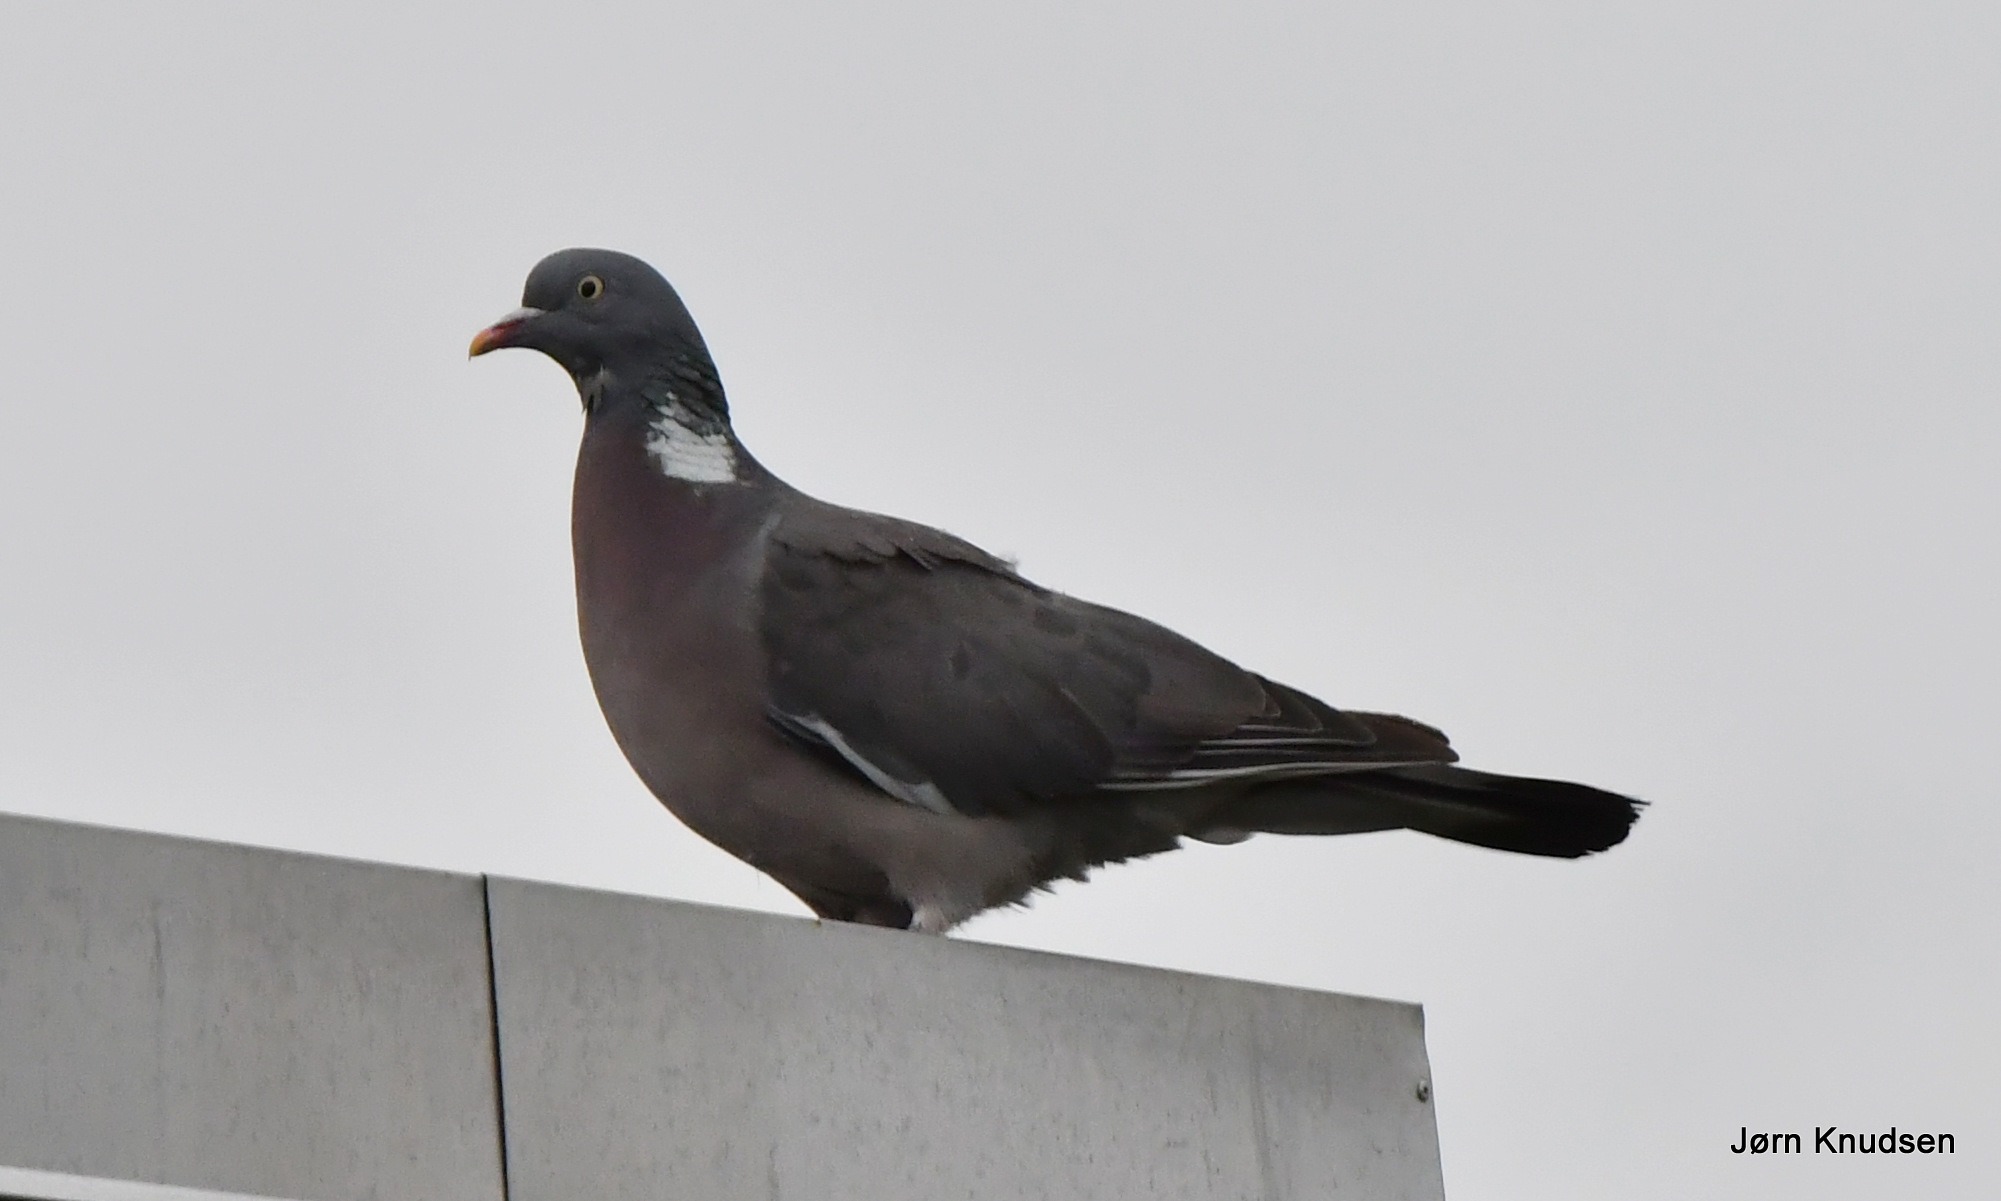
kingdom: Animalia
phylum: Chordata
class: Aves
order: Columbiformes
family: Columbidae
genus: Columba
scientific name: Columba palumbus
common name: Ringdue
